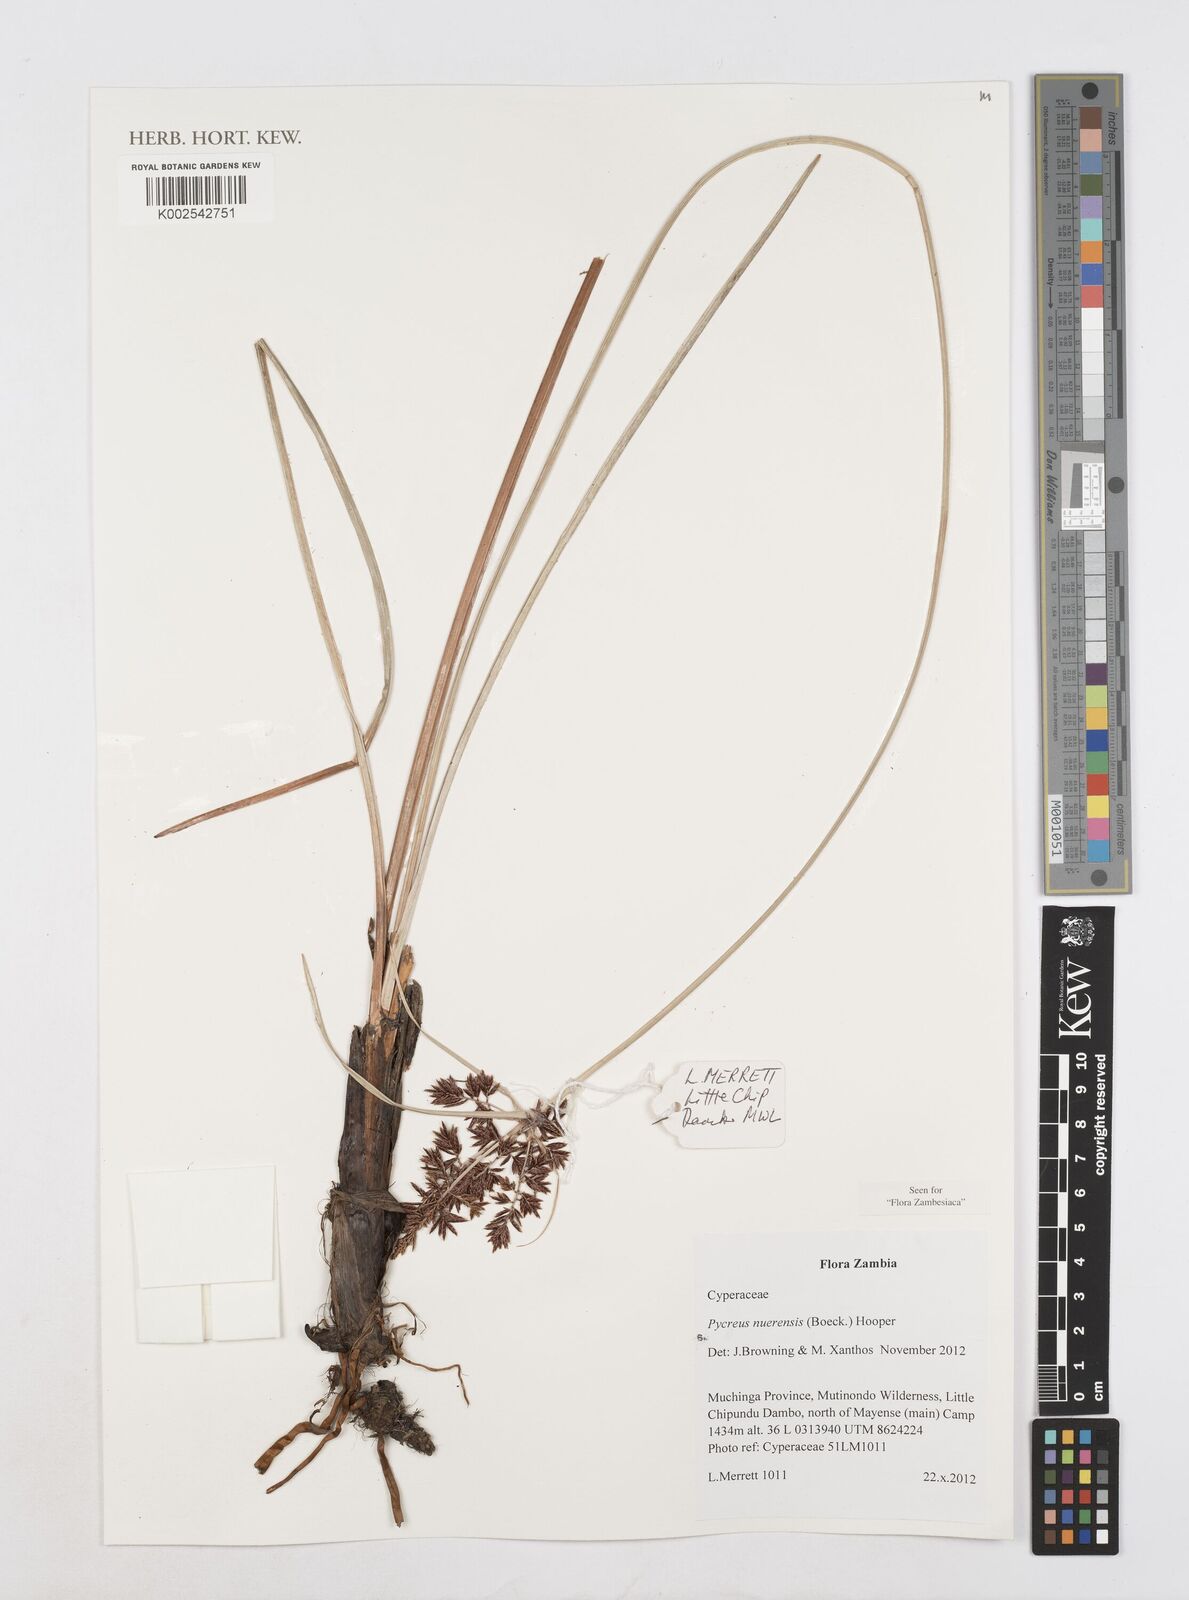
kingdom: Plantae
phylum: Tracheophyta
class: Liliopsida
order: Poales
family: Cyperaceae
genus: Cyperus
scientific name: Cyperus aethiops
